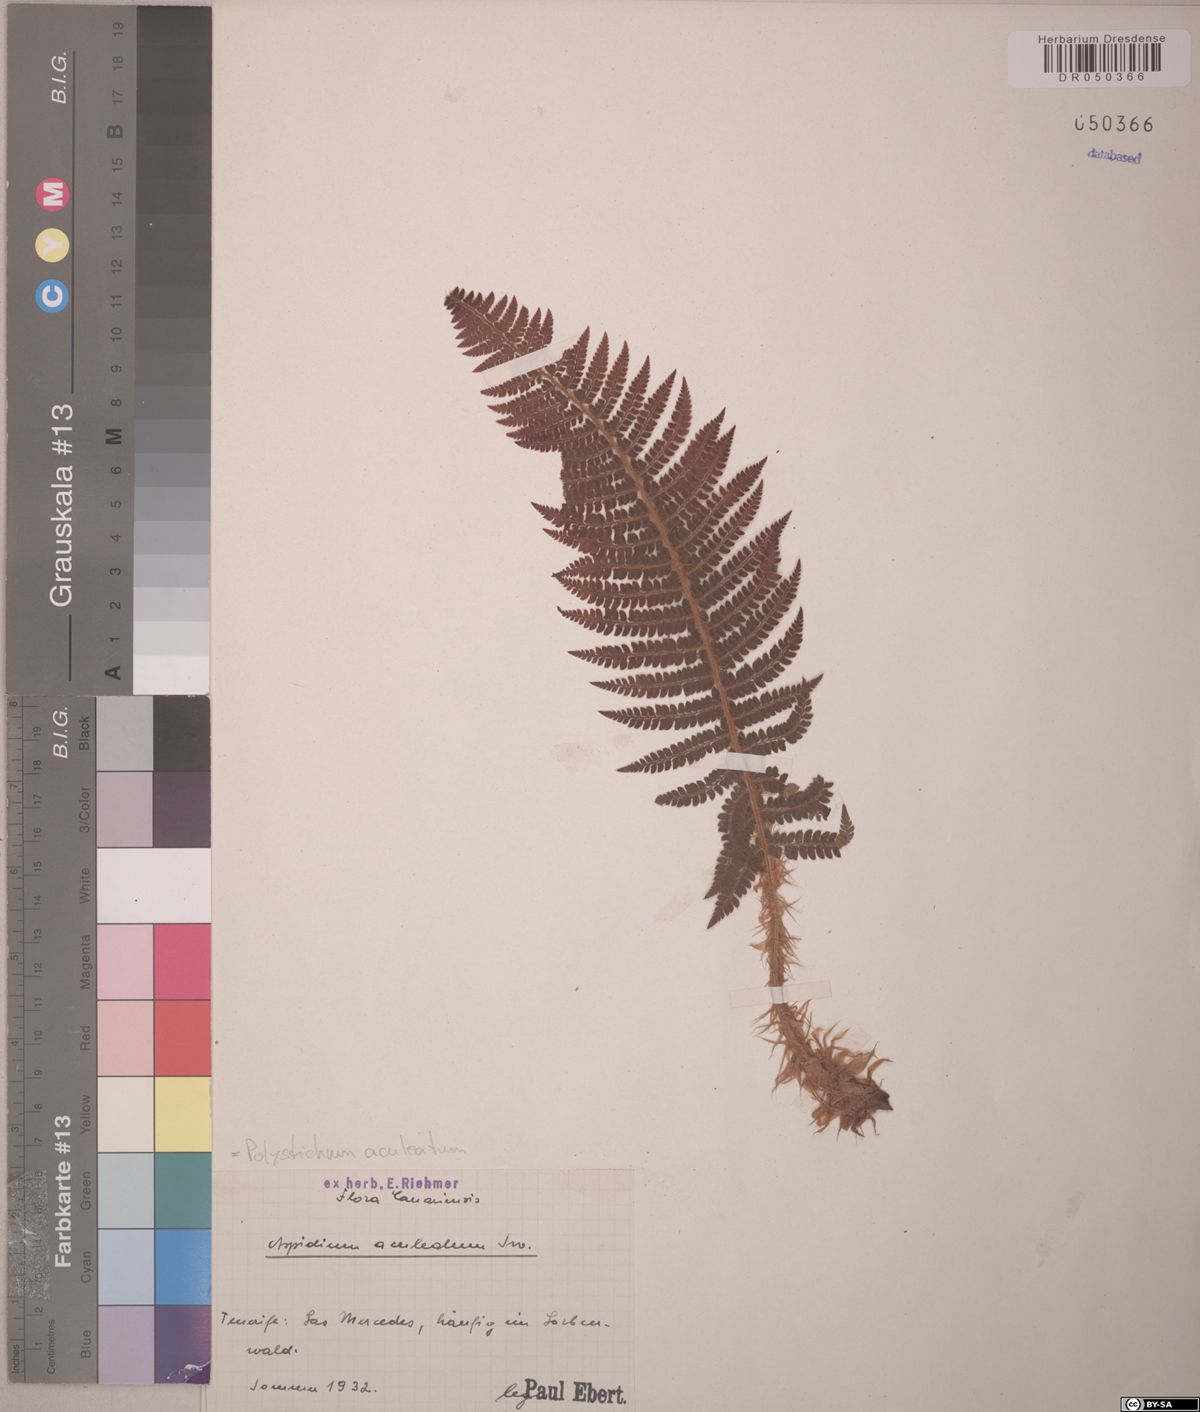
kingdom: Plantae
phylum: Tracheophyta
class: Polypodiopsida
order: Polypodiales
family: Dryopteridaceae
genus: Polystichum
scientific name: Polystichum aculeatum
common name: Hard shield-fern
